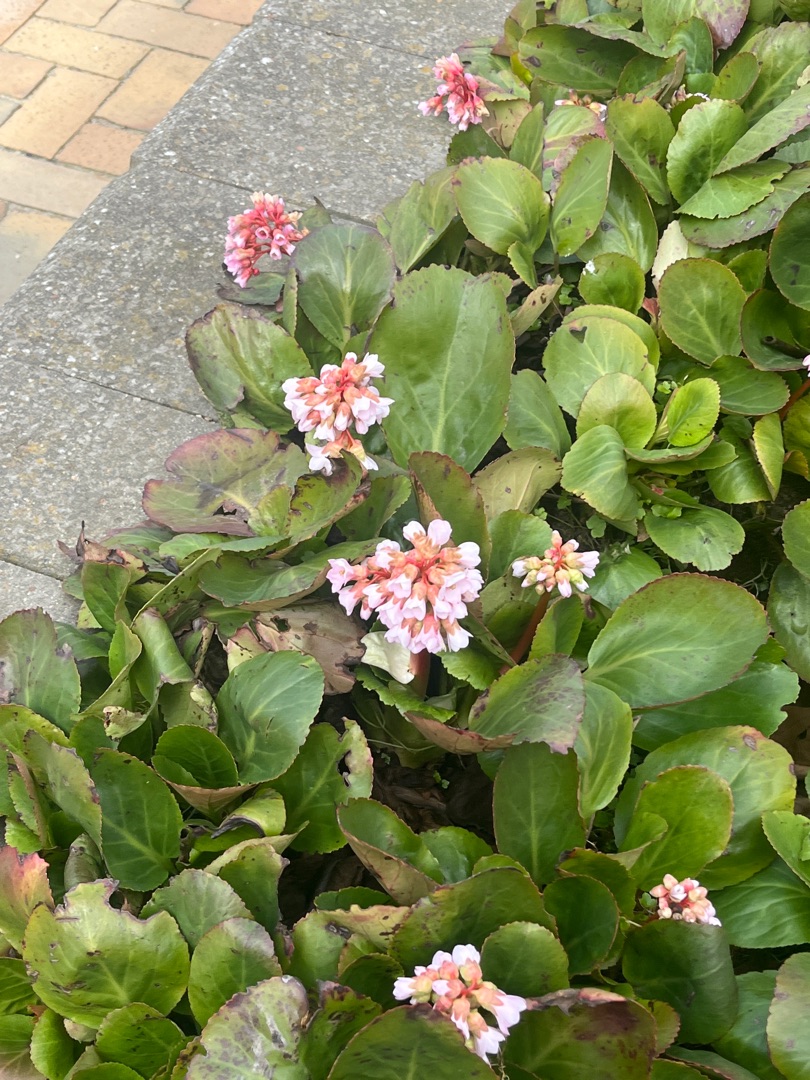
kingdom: Plantae
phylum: Tracheophyta
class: Magnoliopsida
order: Saxifragales
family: Saxifragaceae
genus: Bergenia
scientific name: Bergenia crassifolia
